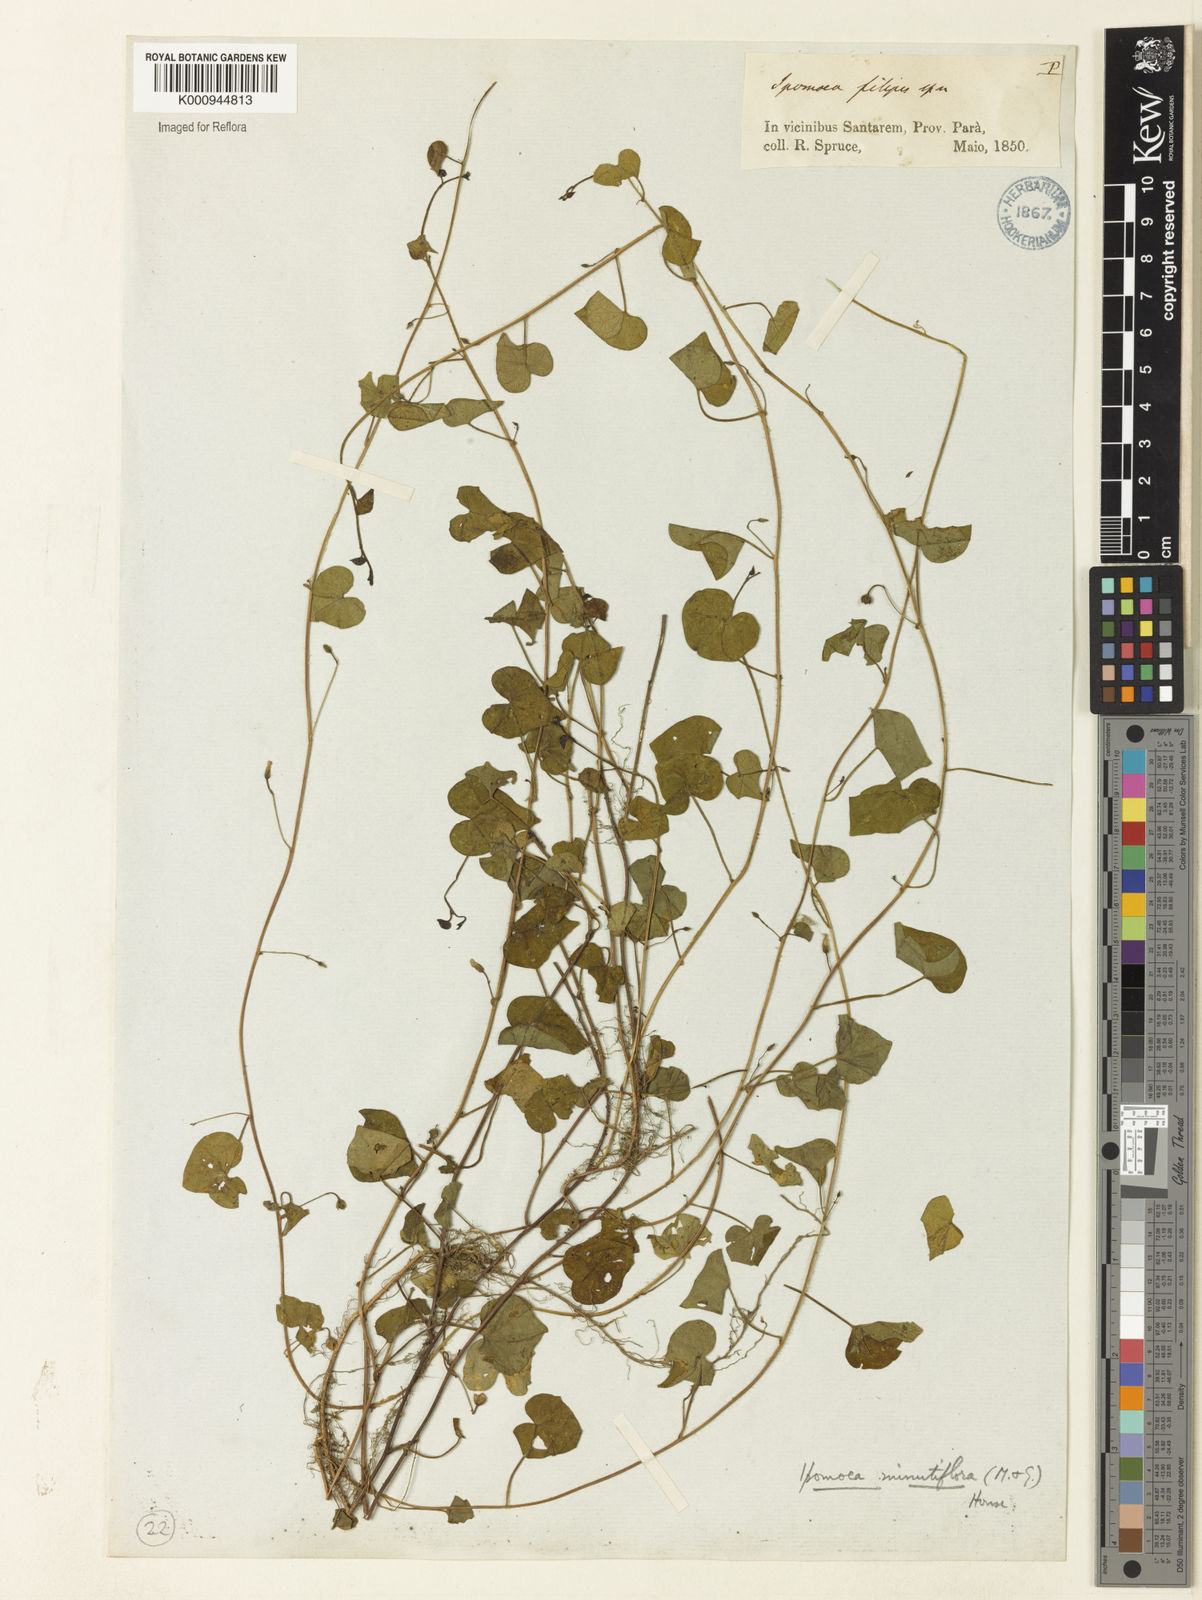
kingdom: Plantae
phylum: Tracheophyta
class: Magnoliopsida
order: Solanales
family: Convolvulaceae
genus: Ipomoea
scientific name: Ipomoea minutiflora
